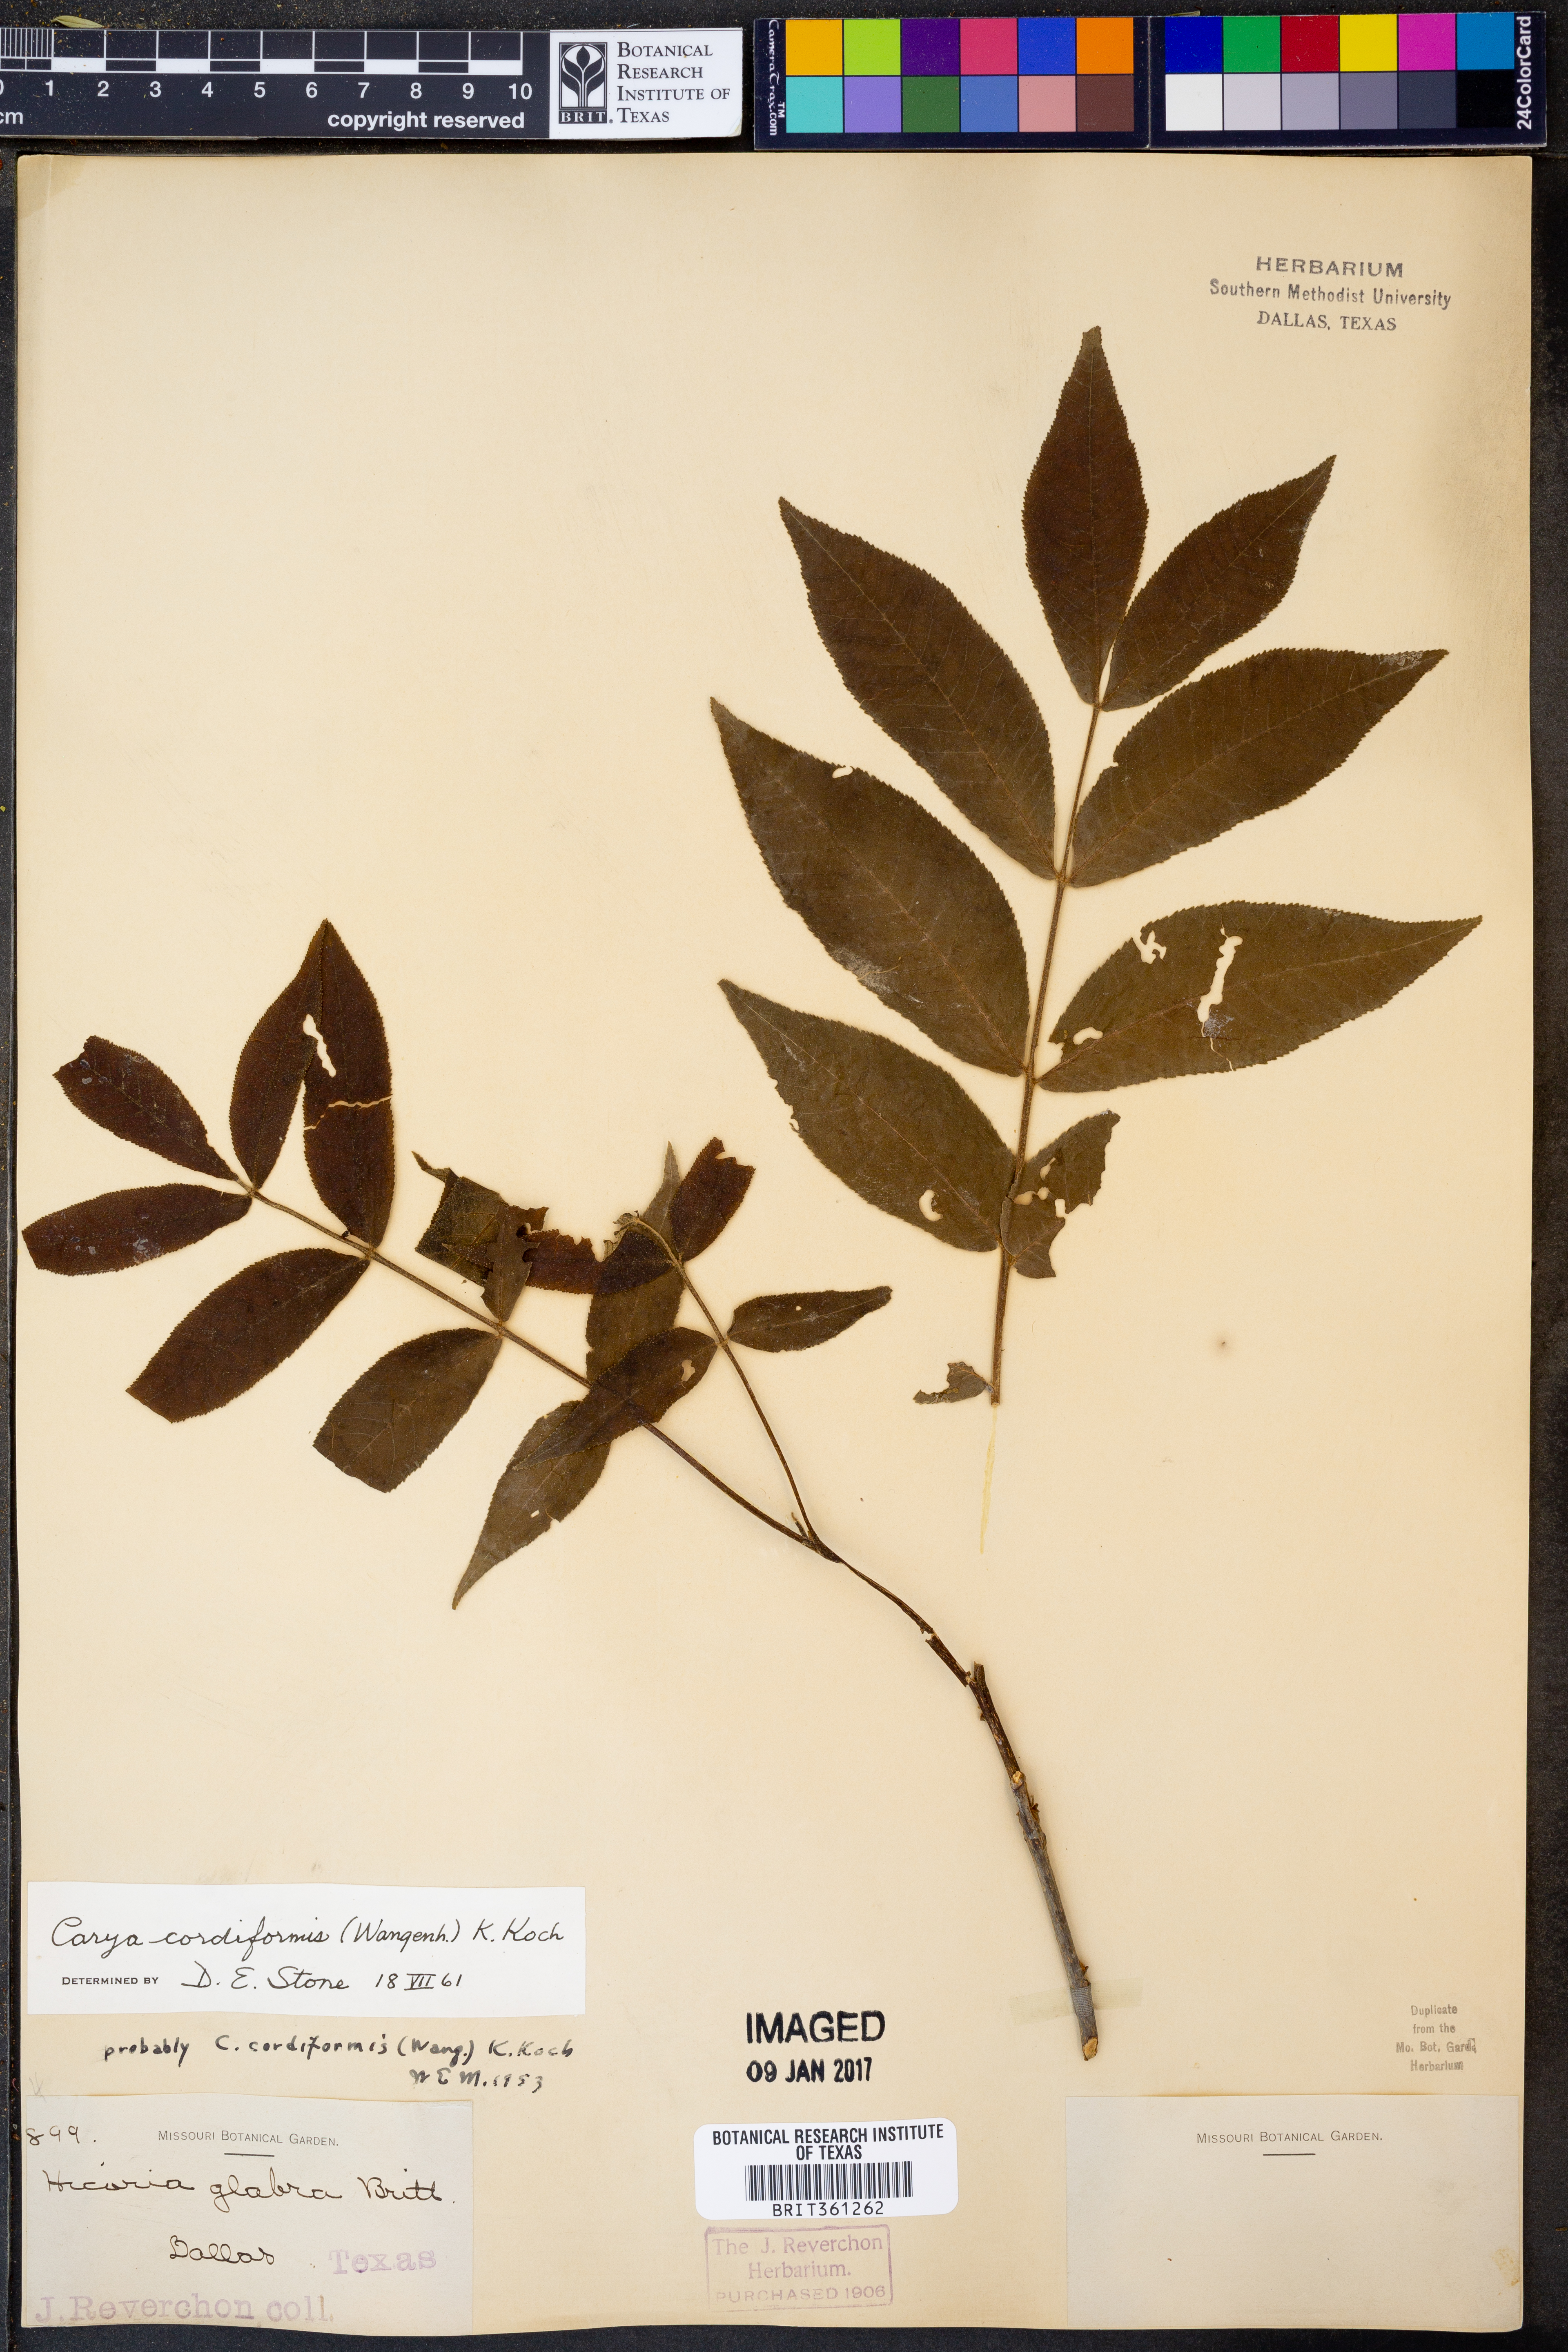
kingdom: Plantae
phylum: Tracheophyta
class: Magnoliopsida
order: Fagales
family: Juglandaceae
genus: Carya
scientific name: Carya cordiformis
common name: Bitternut hickory
